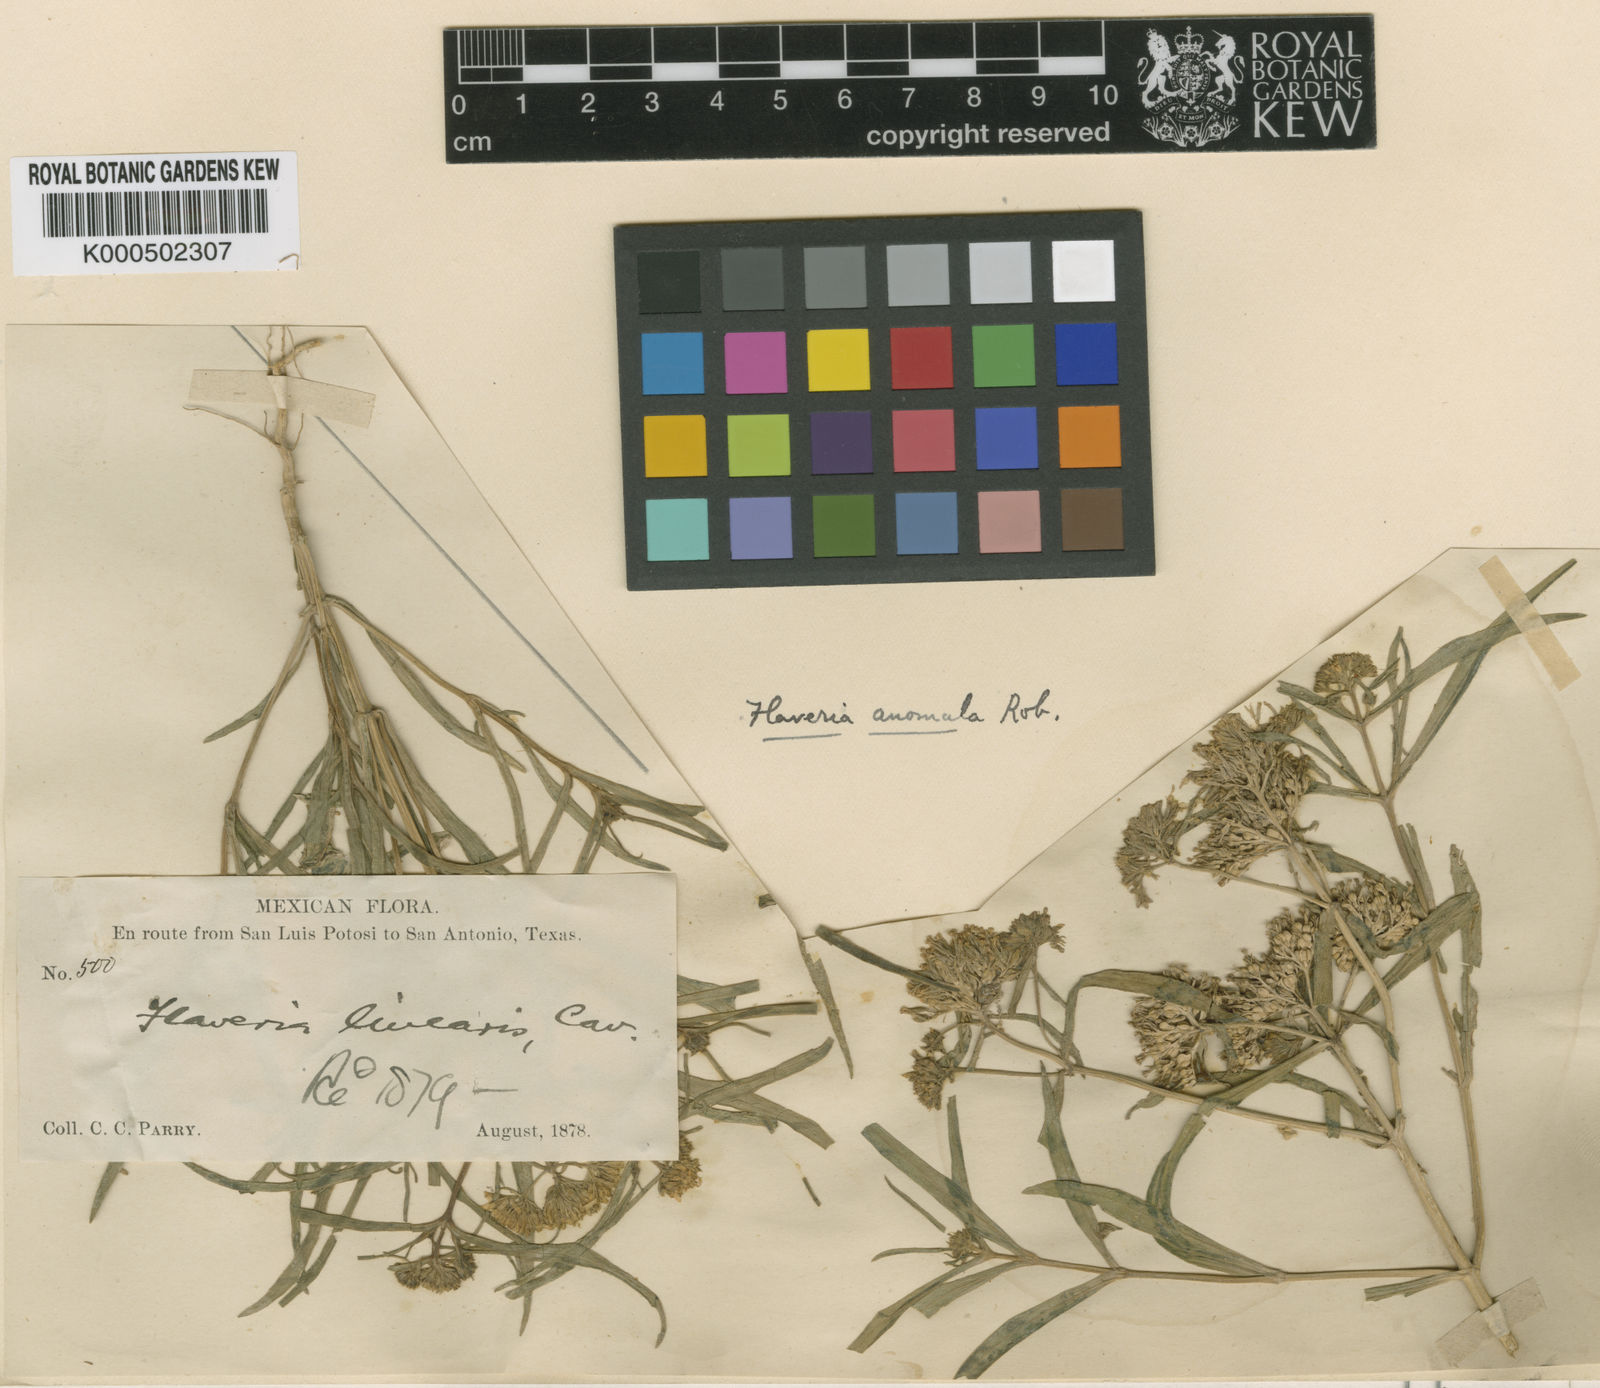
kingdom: Plantae
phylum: Tracheophyta
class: Magnoliopsida
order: Asterales
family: Asteraceae
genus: Flaveria
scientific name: Flaveria anomala
